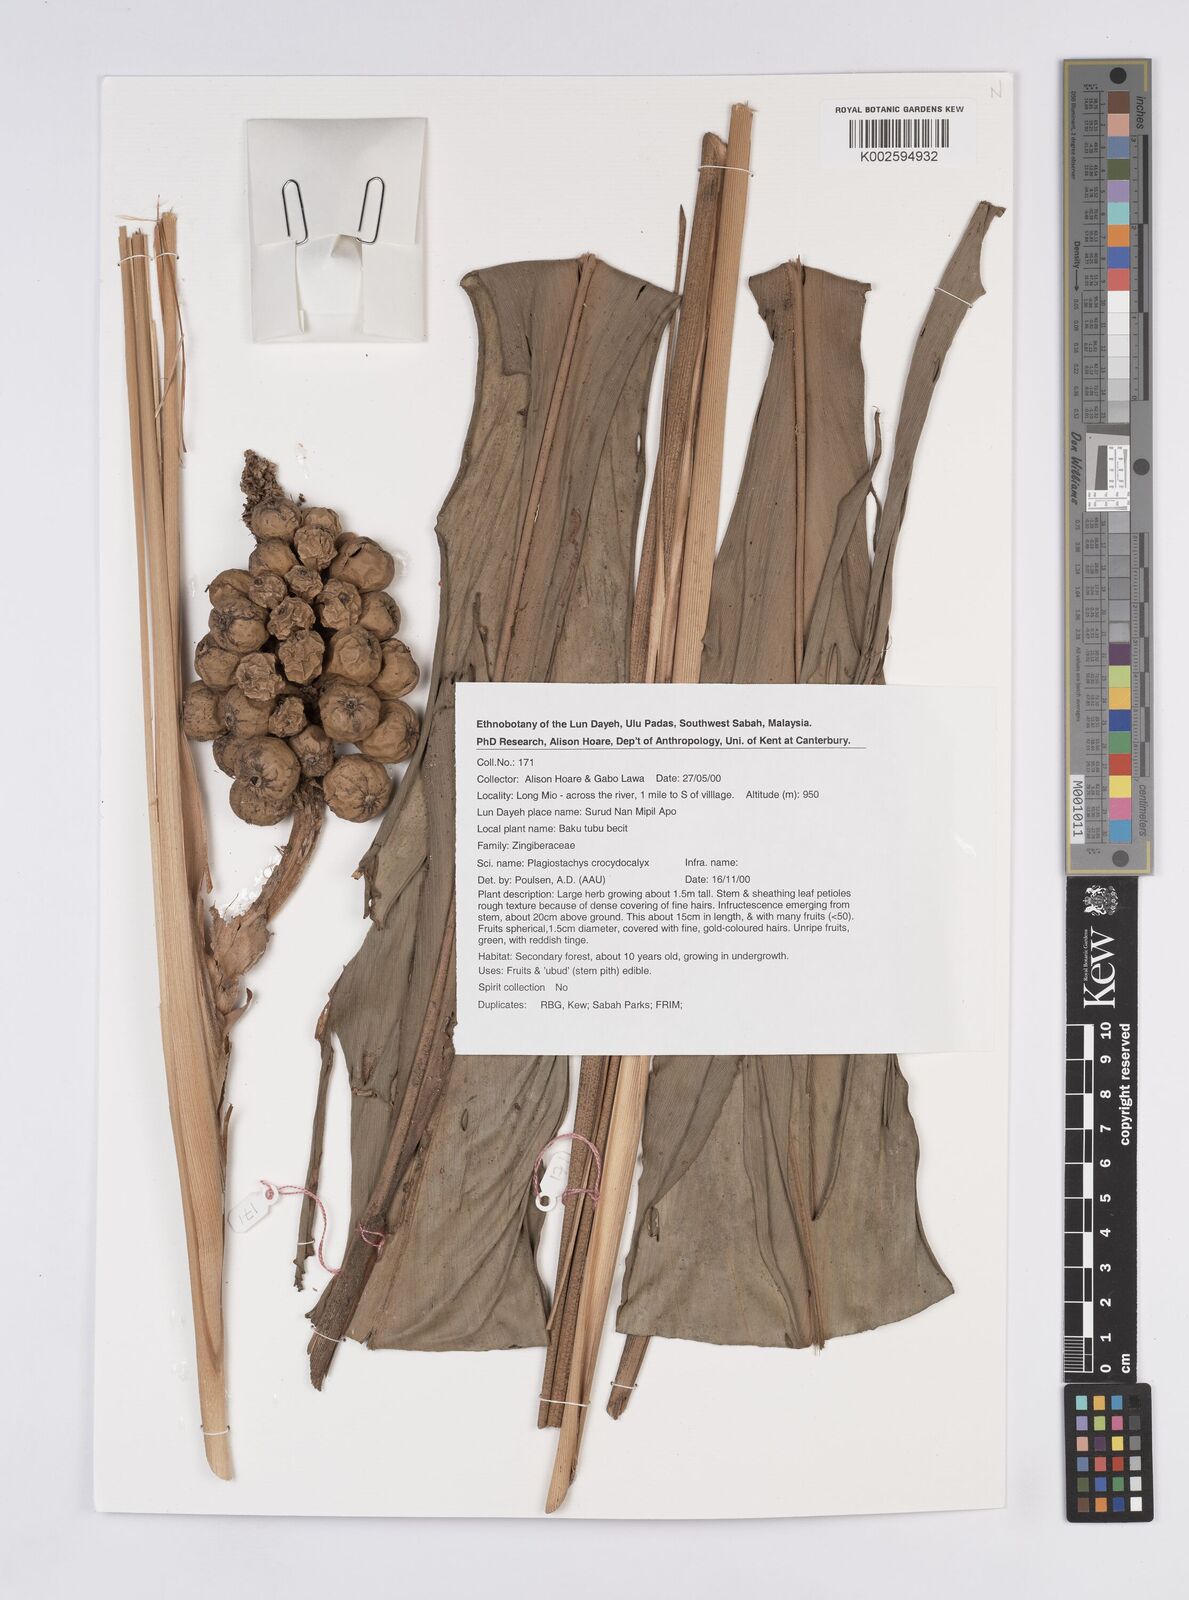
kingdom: Plantae
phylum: Tracheophyta
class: Liliopsida
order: Zingiberales
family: Zingiberaceae
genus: Plagiostachys
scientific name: Plagiostachys crocydocalyx
